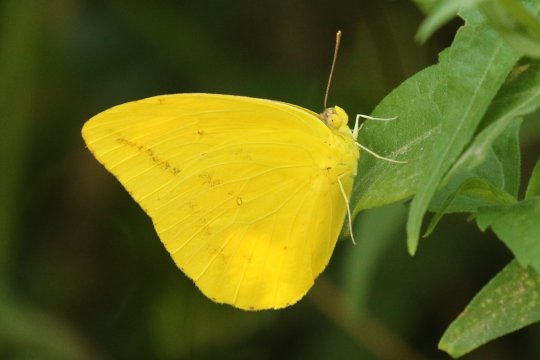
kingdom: Animalia
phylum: Arthropoda
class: Insecta
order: Lepidoptera
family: Pieridae
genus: Phoebis
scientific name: Phoebis agarithe
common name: Large Orange Sulphur
